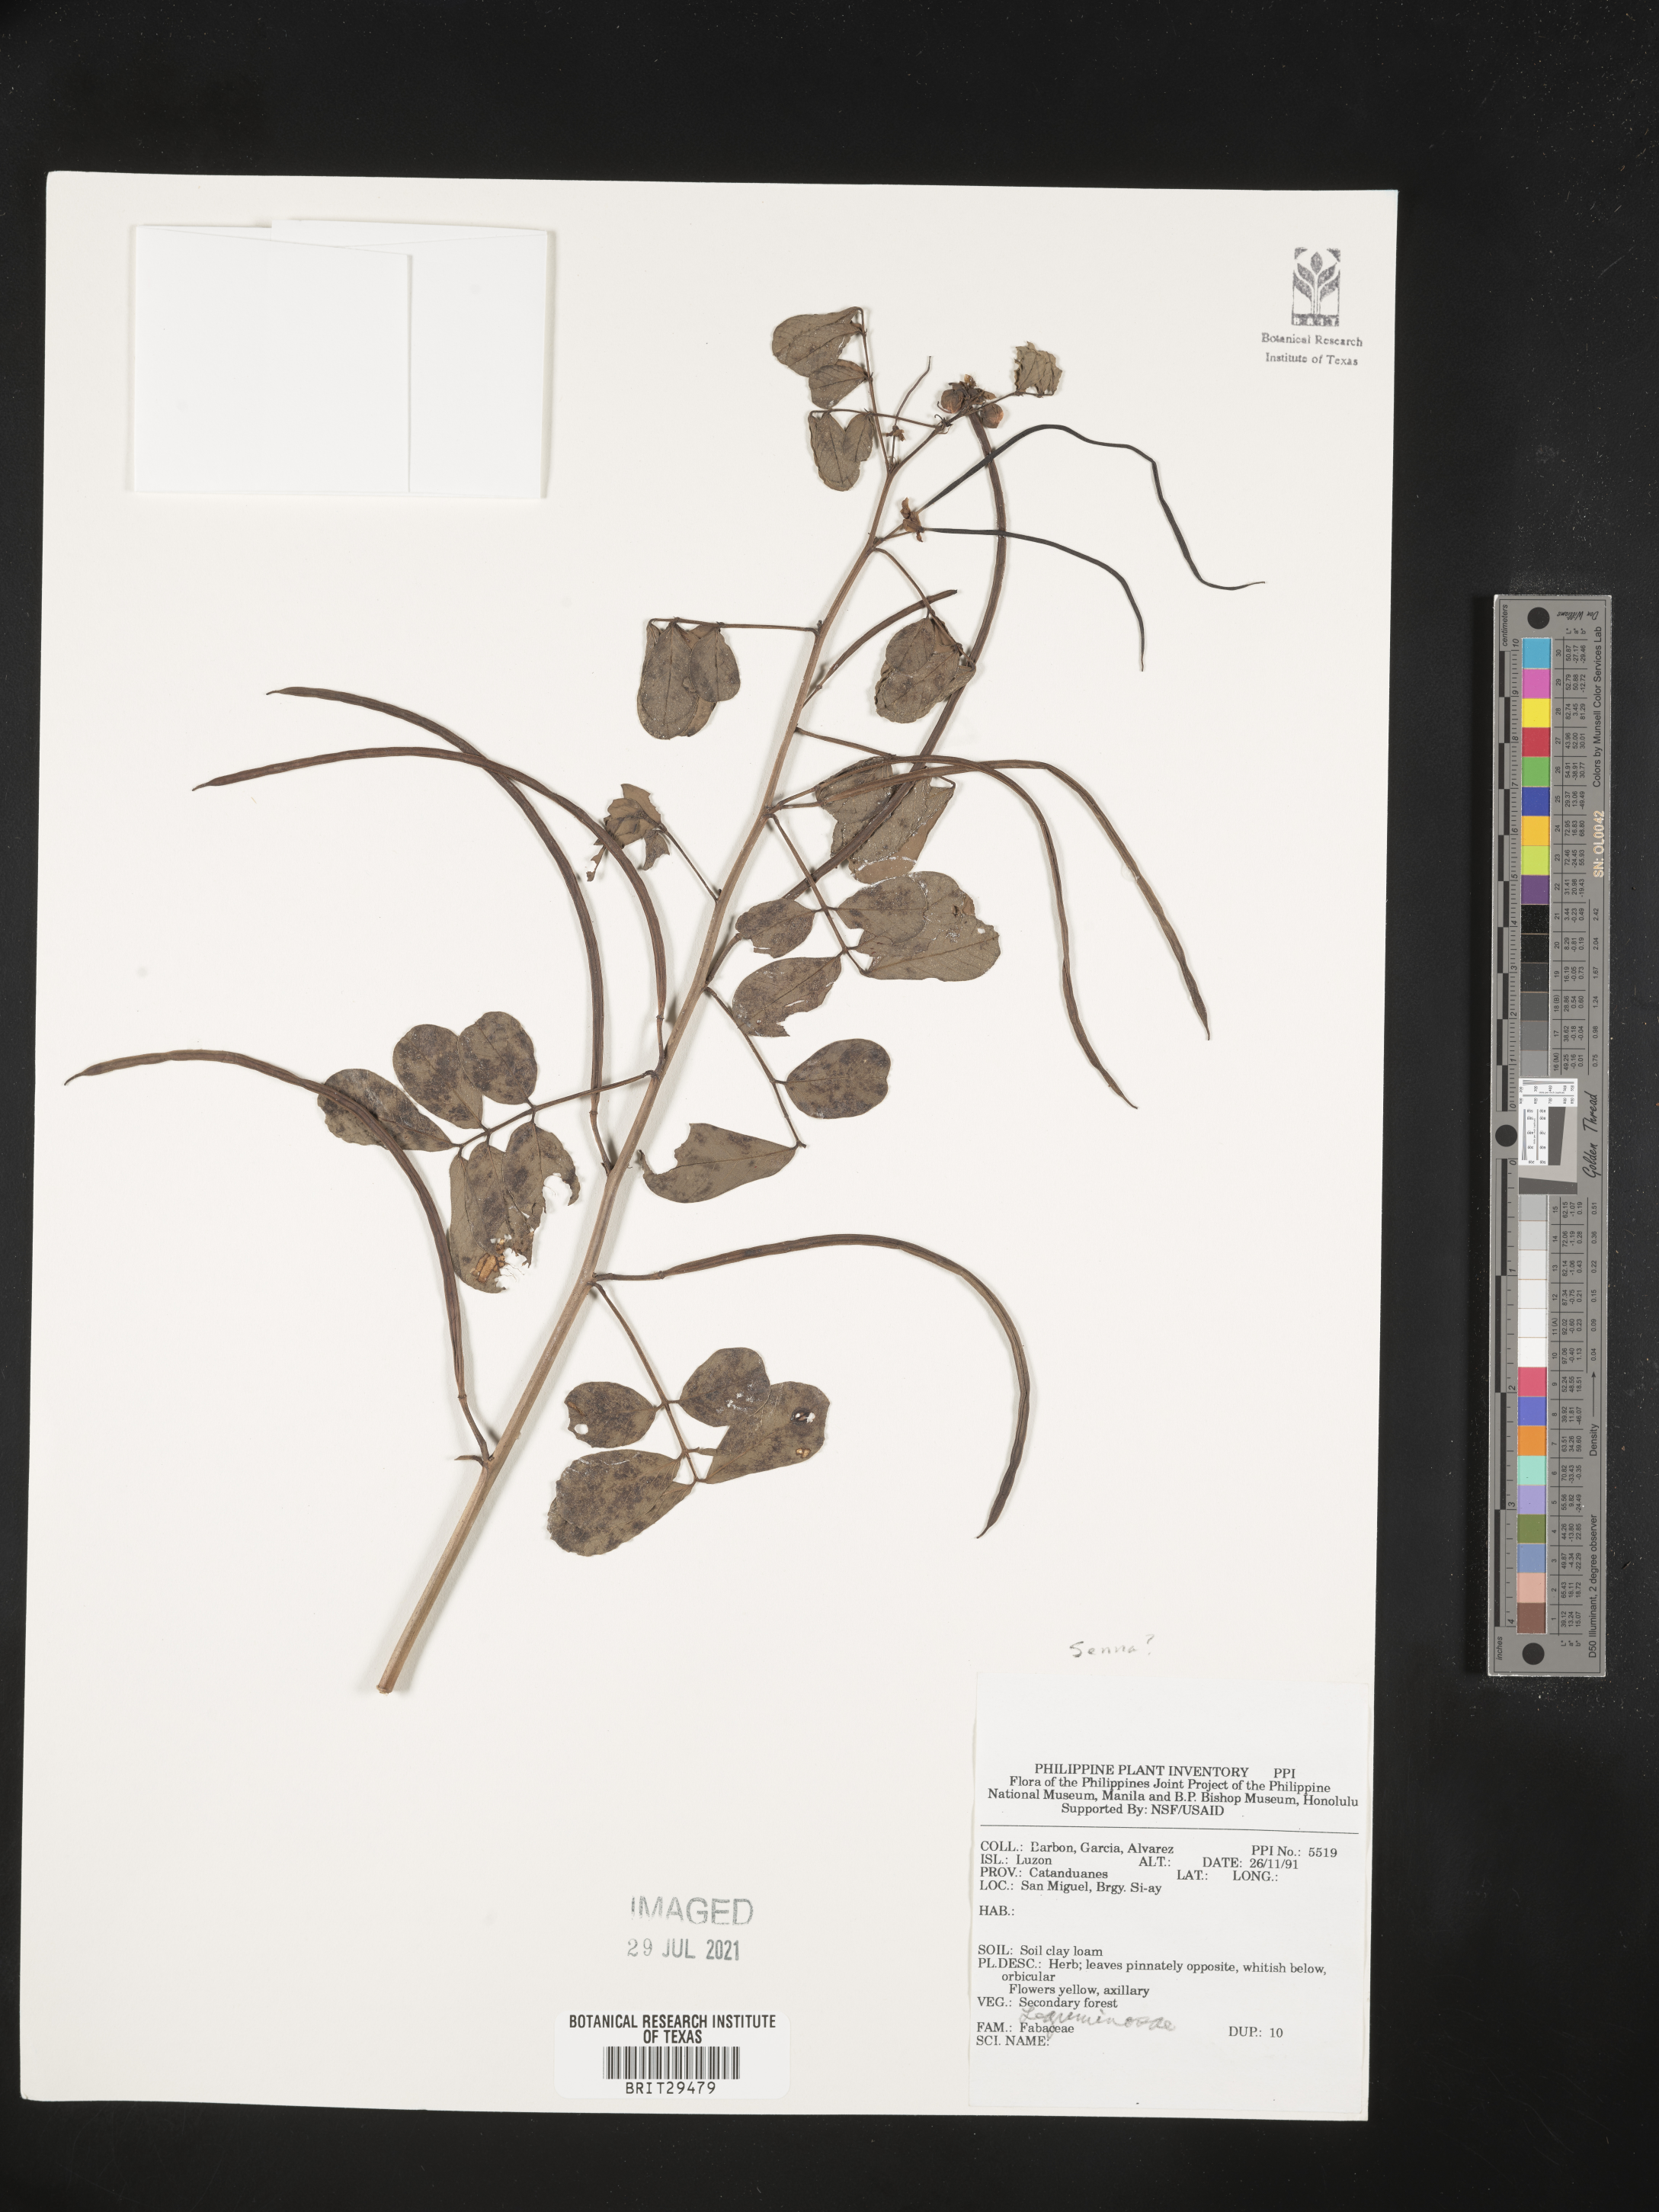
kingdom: Plantae
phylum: Tracheophyta
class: Magnoliopsida
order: Fabales
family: Fabaceae
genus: Senna
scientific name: Senna
